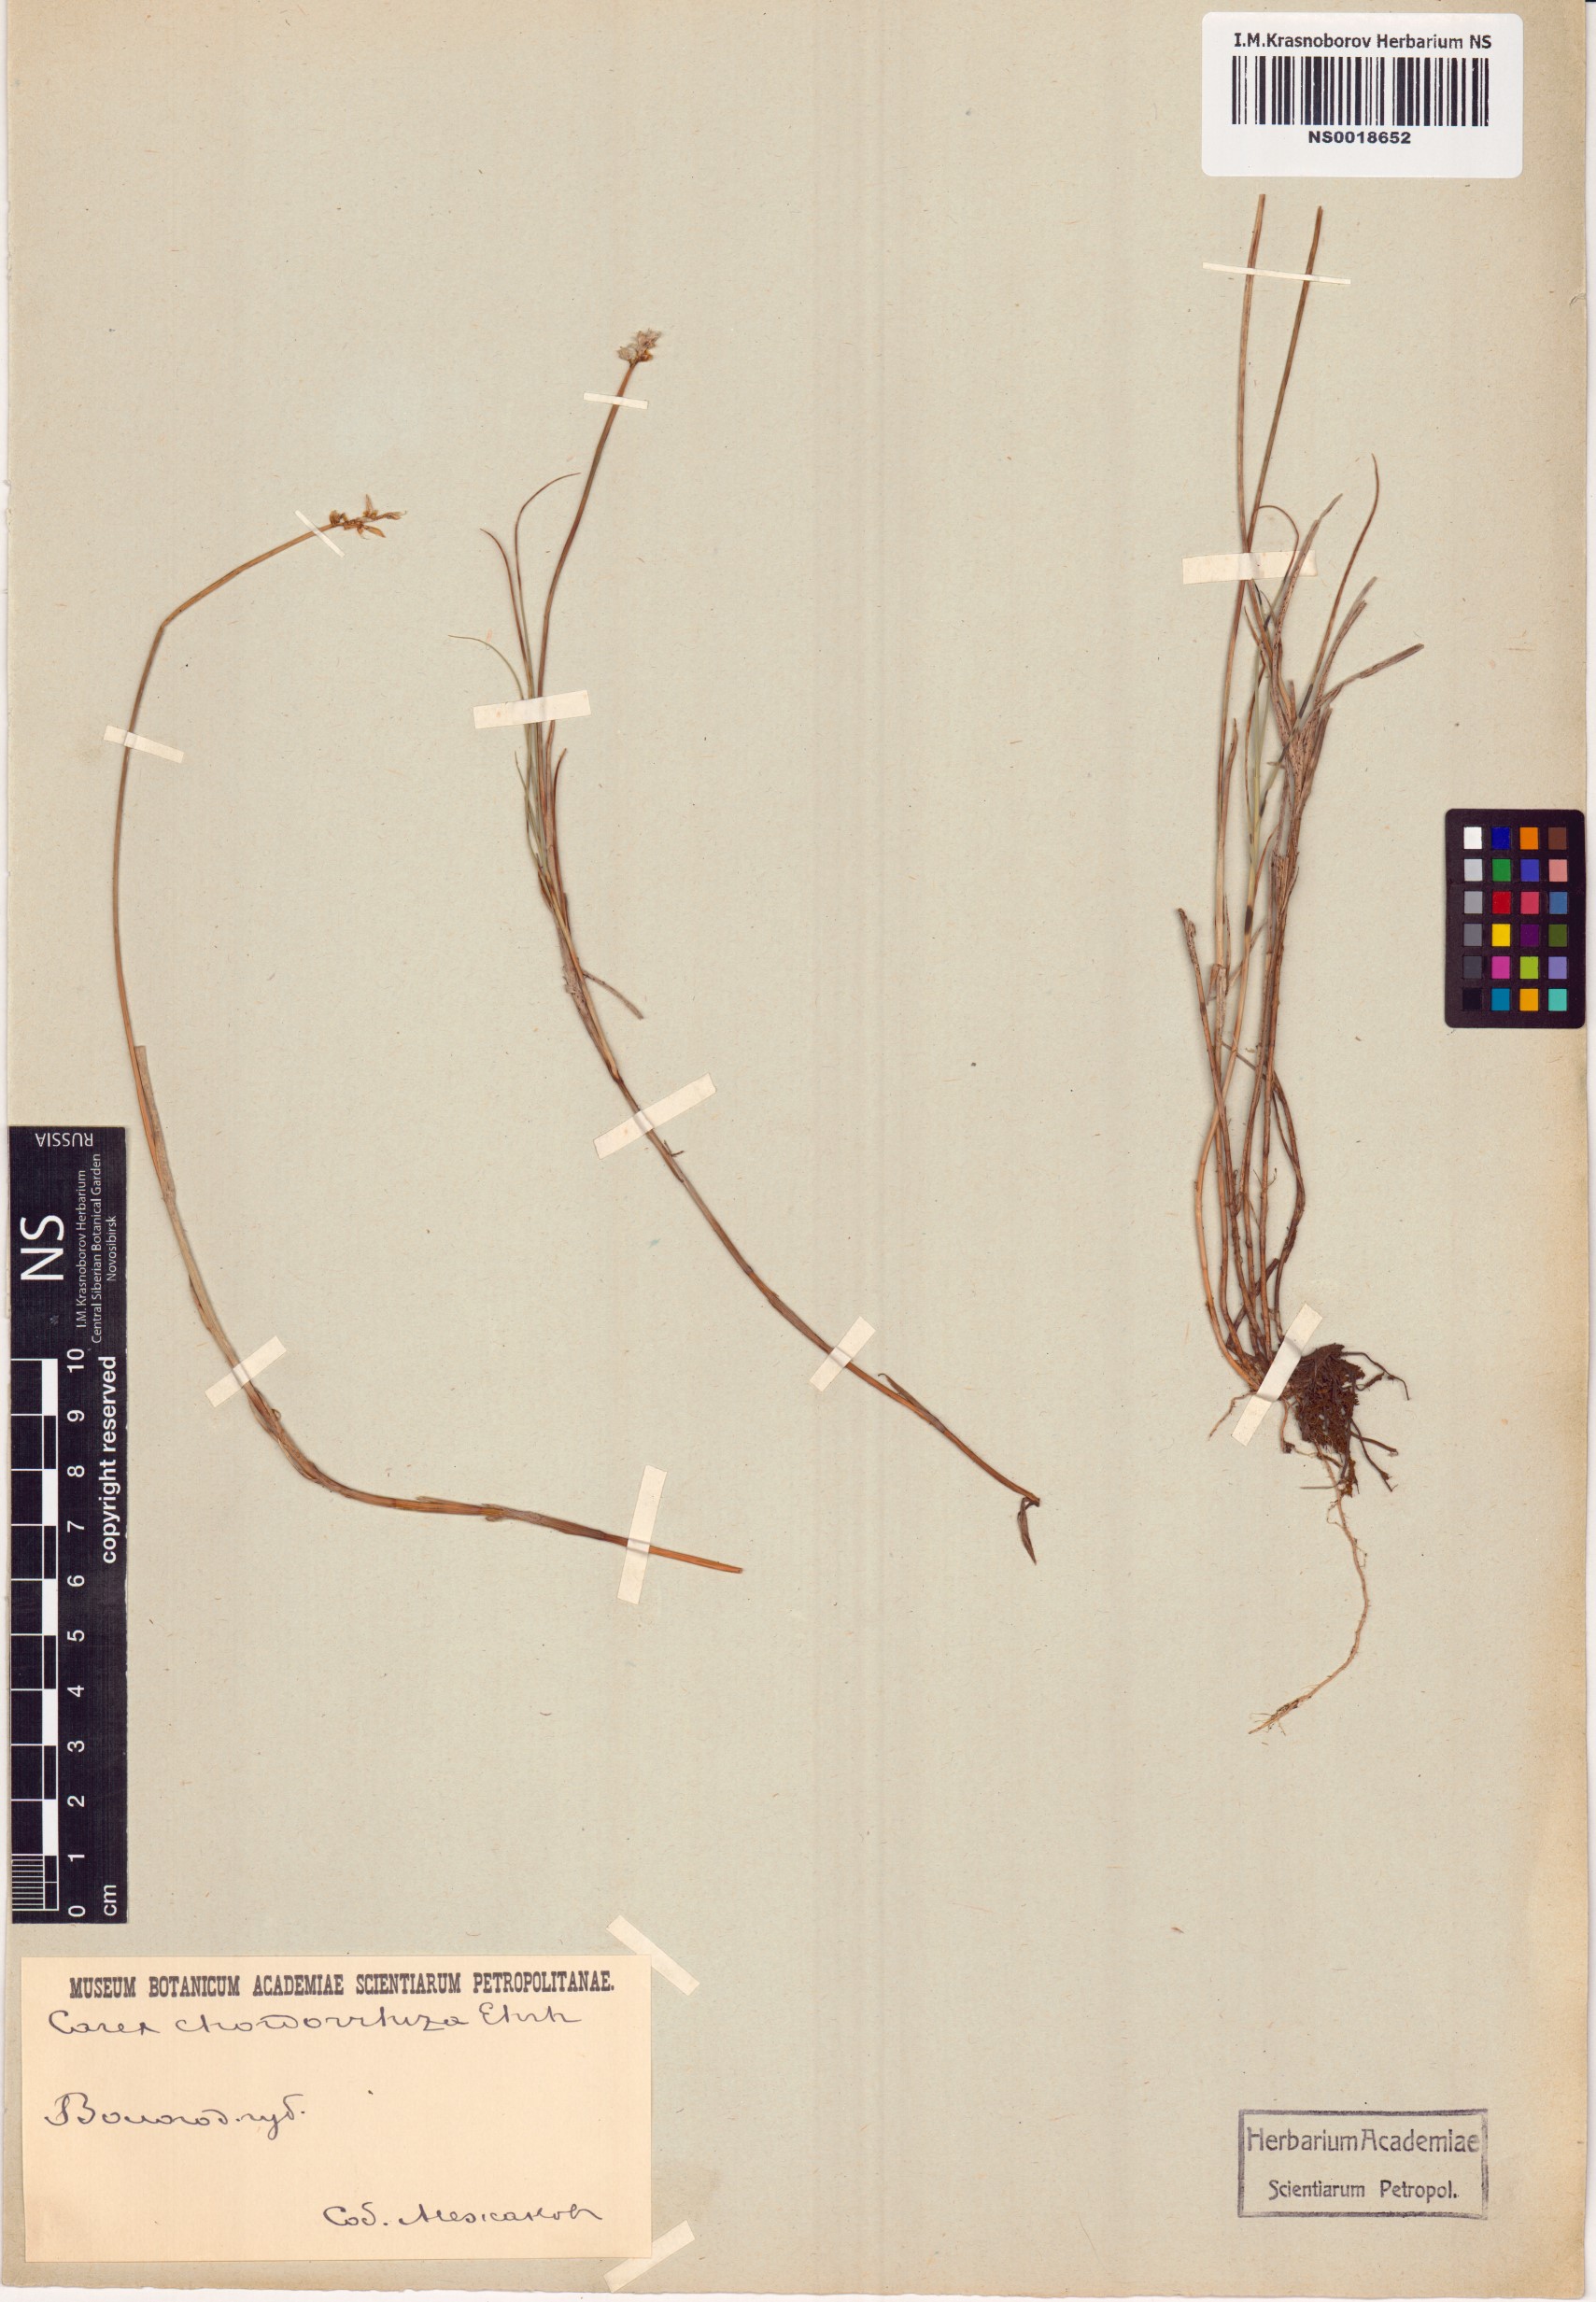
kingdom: Plantae
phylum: Tracheophyta
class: Liliopsida
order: Poales
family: Cyperaceae
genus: Carex
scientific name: Carex chordorrhiza
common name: String sedge
